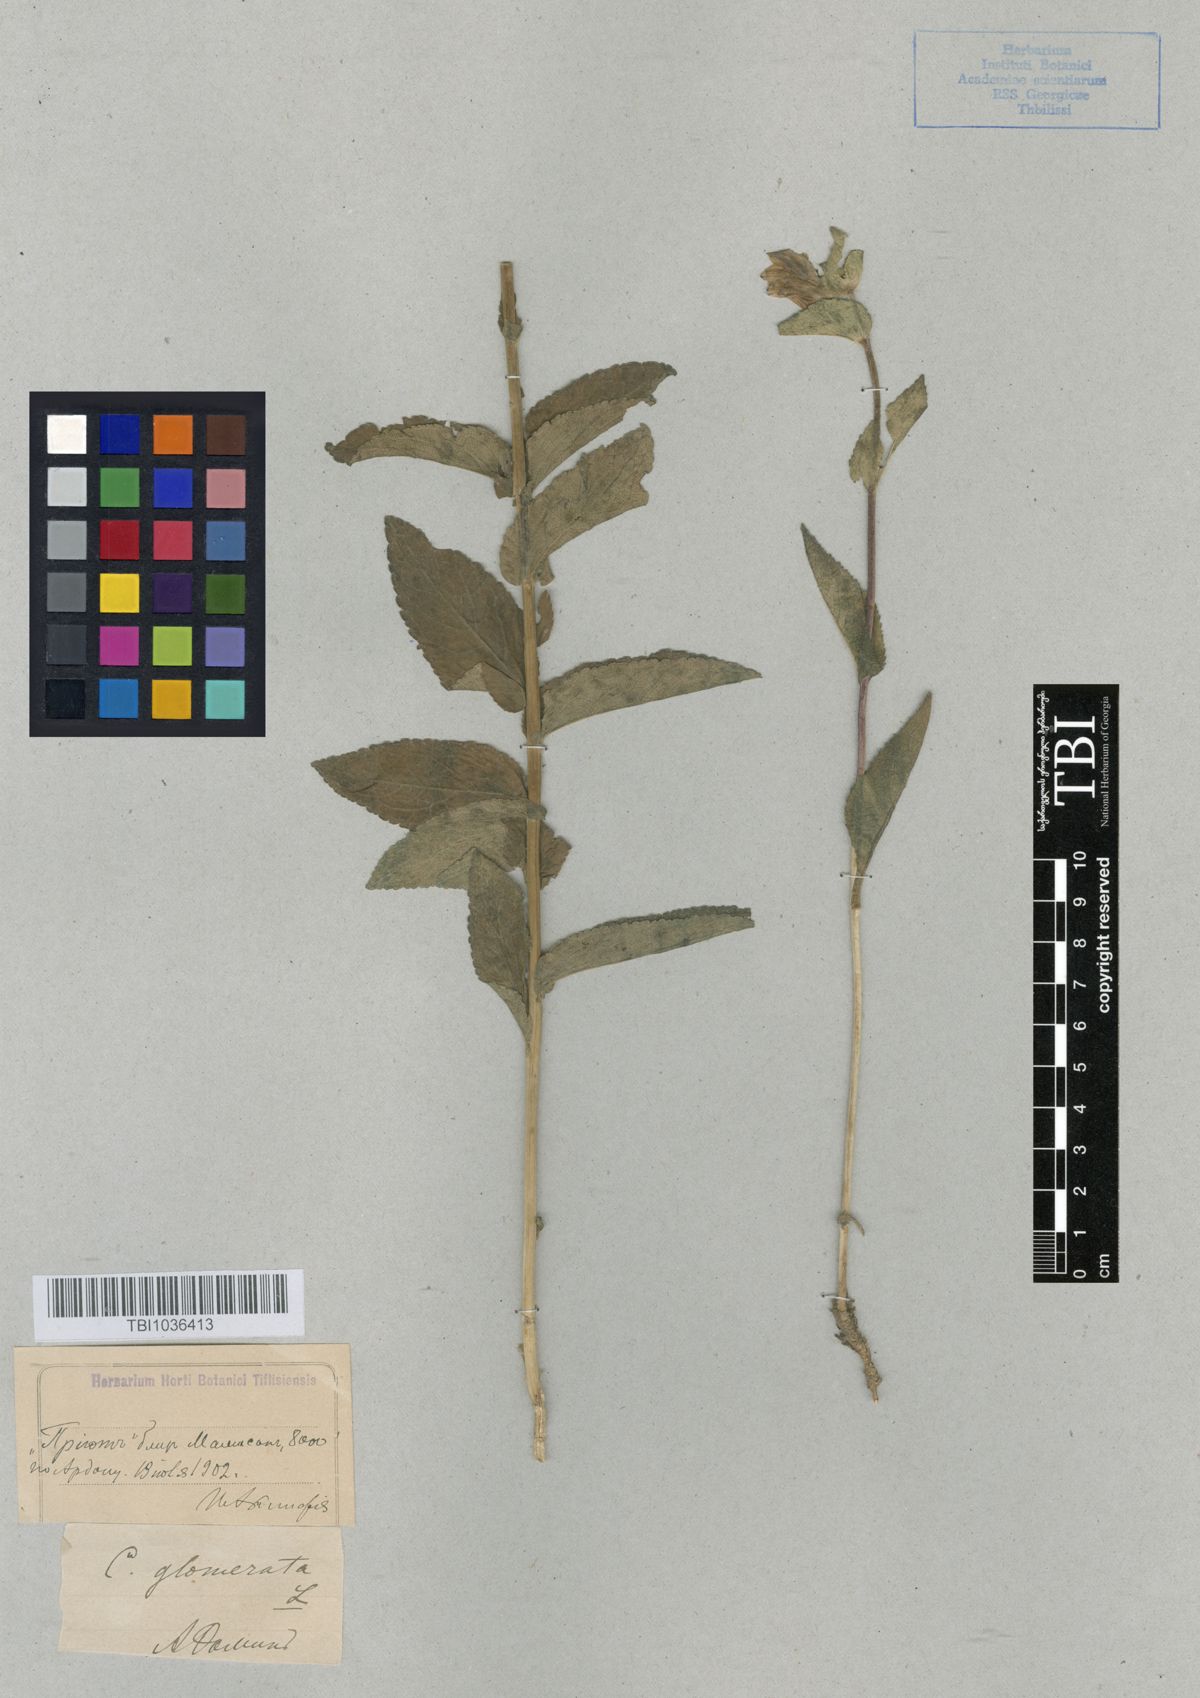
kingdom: Plantae
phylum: Tracheophyta
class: Magnoliopsida
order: Asterales
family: Campanulaceae
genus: Campanula
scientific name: Campanula glomerata
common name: Clustered bellflower
